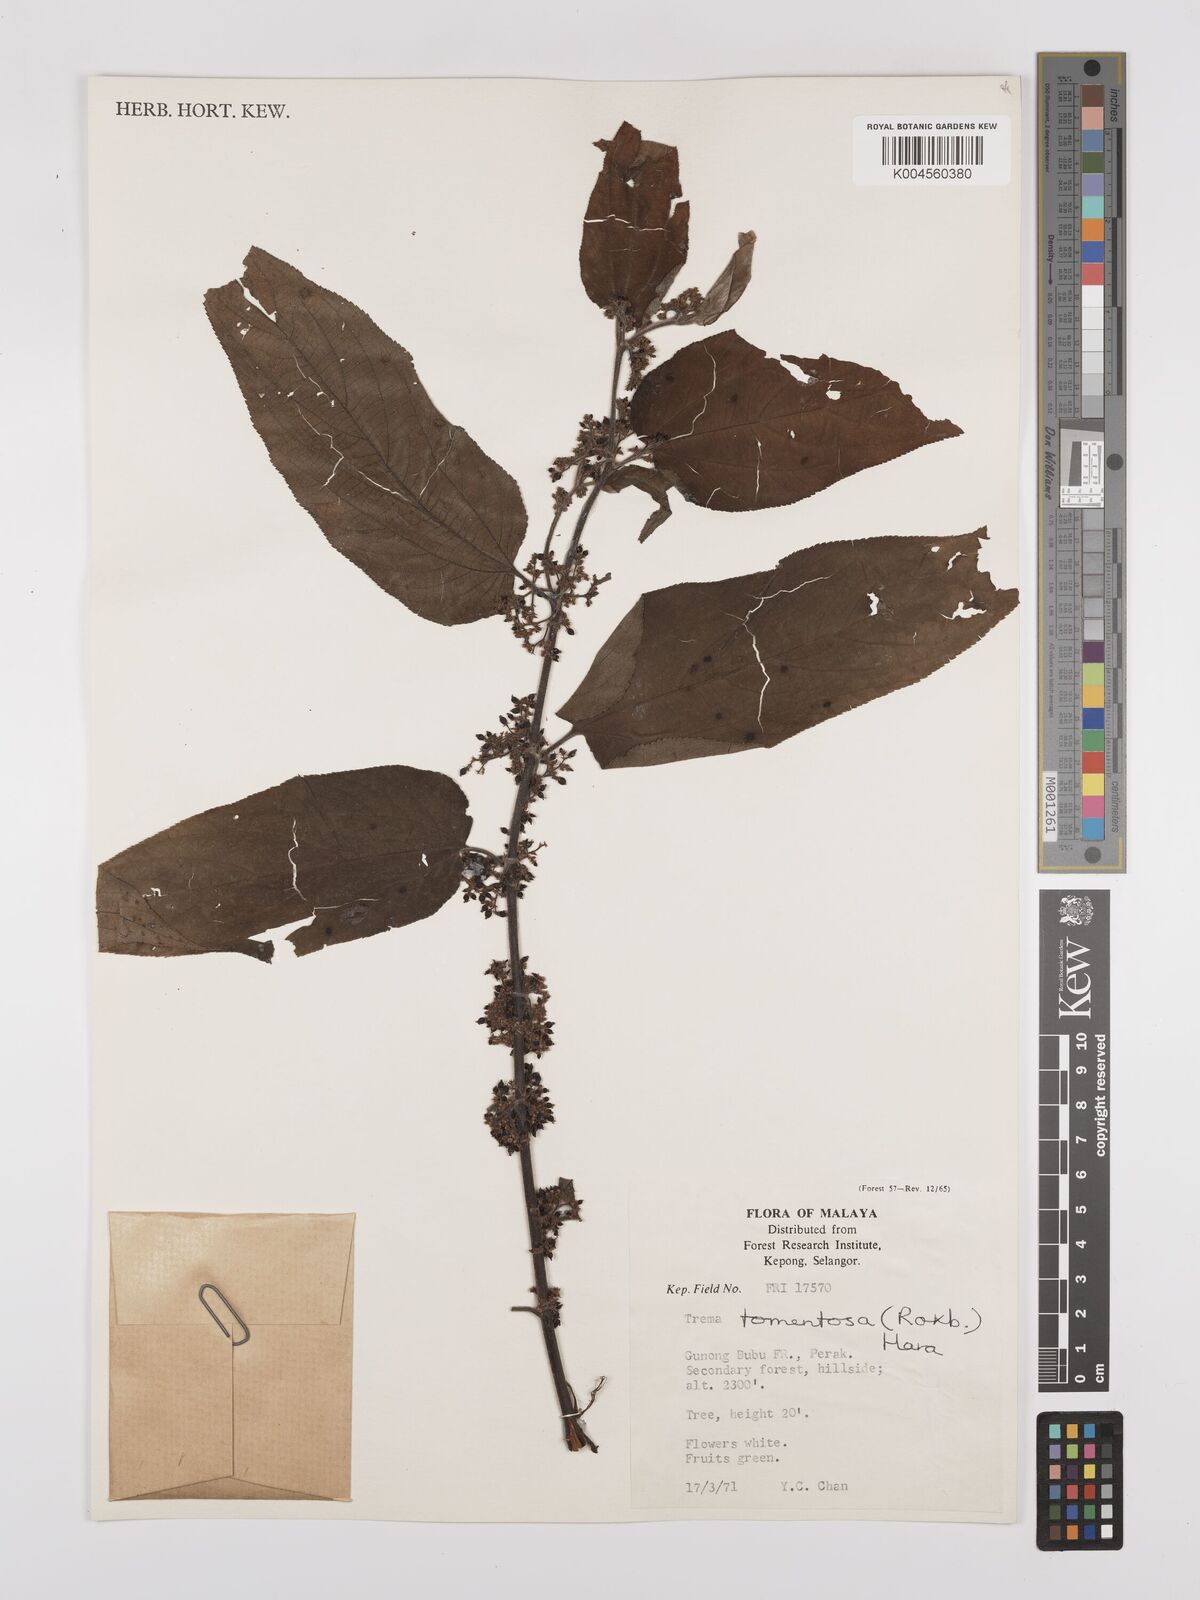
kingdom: Plantae
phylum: Tracheophyta
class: Magnoliopsida
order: Rosales
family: Cannabaceae
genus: Trema
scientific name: Trema tomentosum
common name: Peach-leaf-poisonbush
